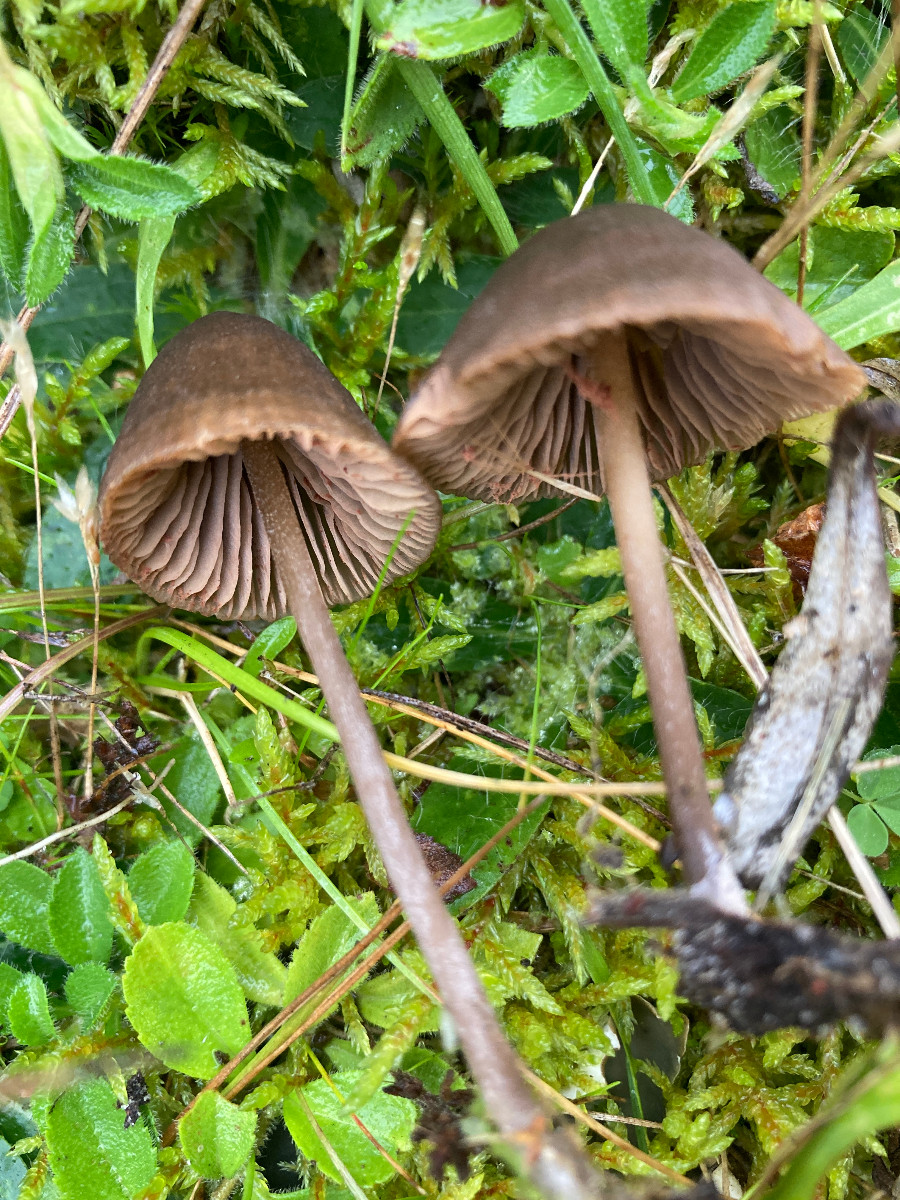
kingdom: Fungi
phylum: Basidiomycota
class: Agaricomycetes
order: Agaricales
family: Entolomataceae
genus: Entoloma
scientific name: Entoloma clandestinum
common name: tykbladet rødblad
